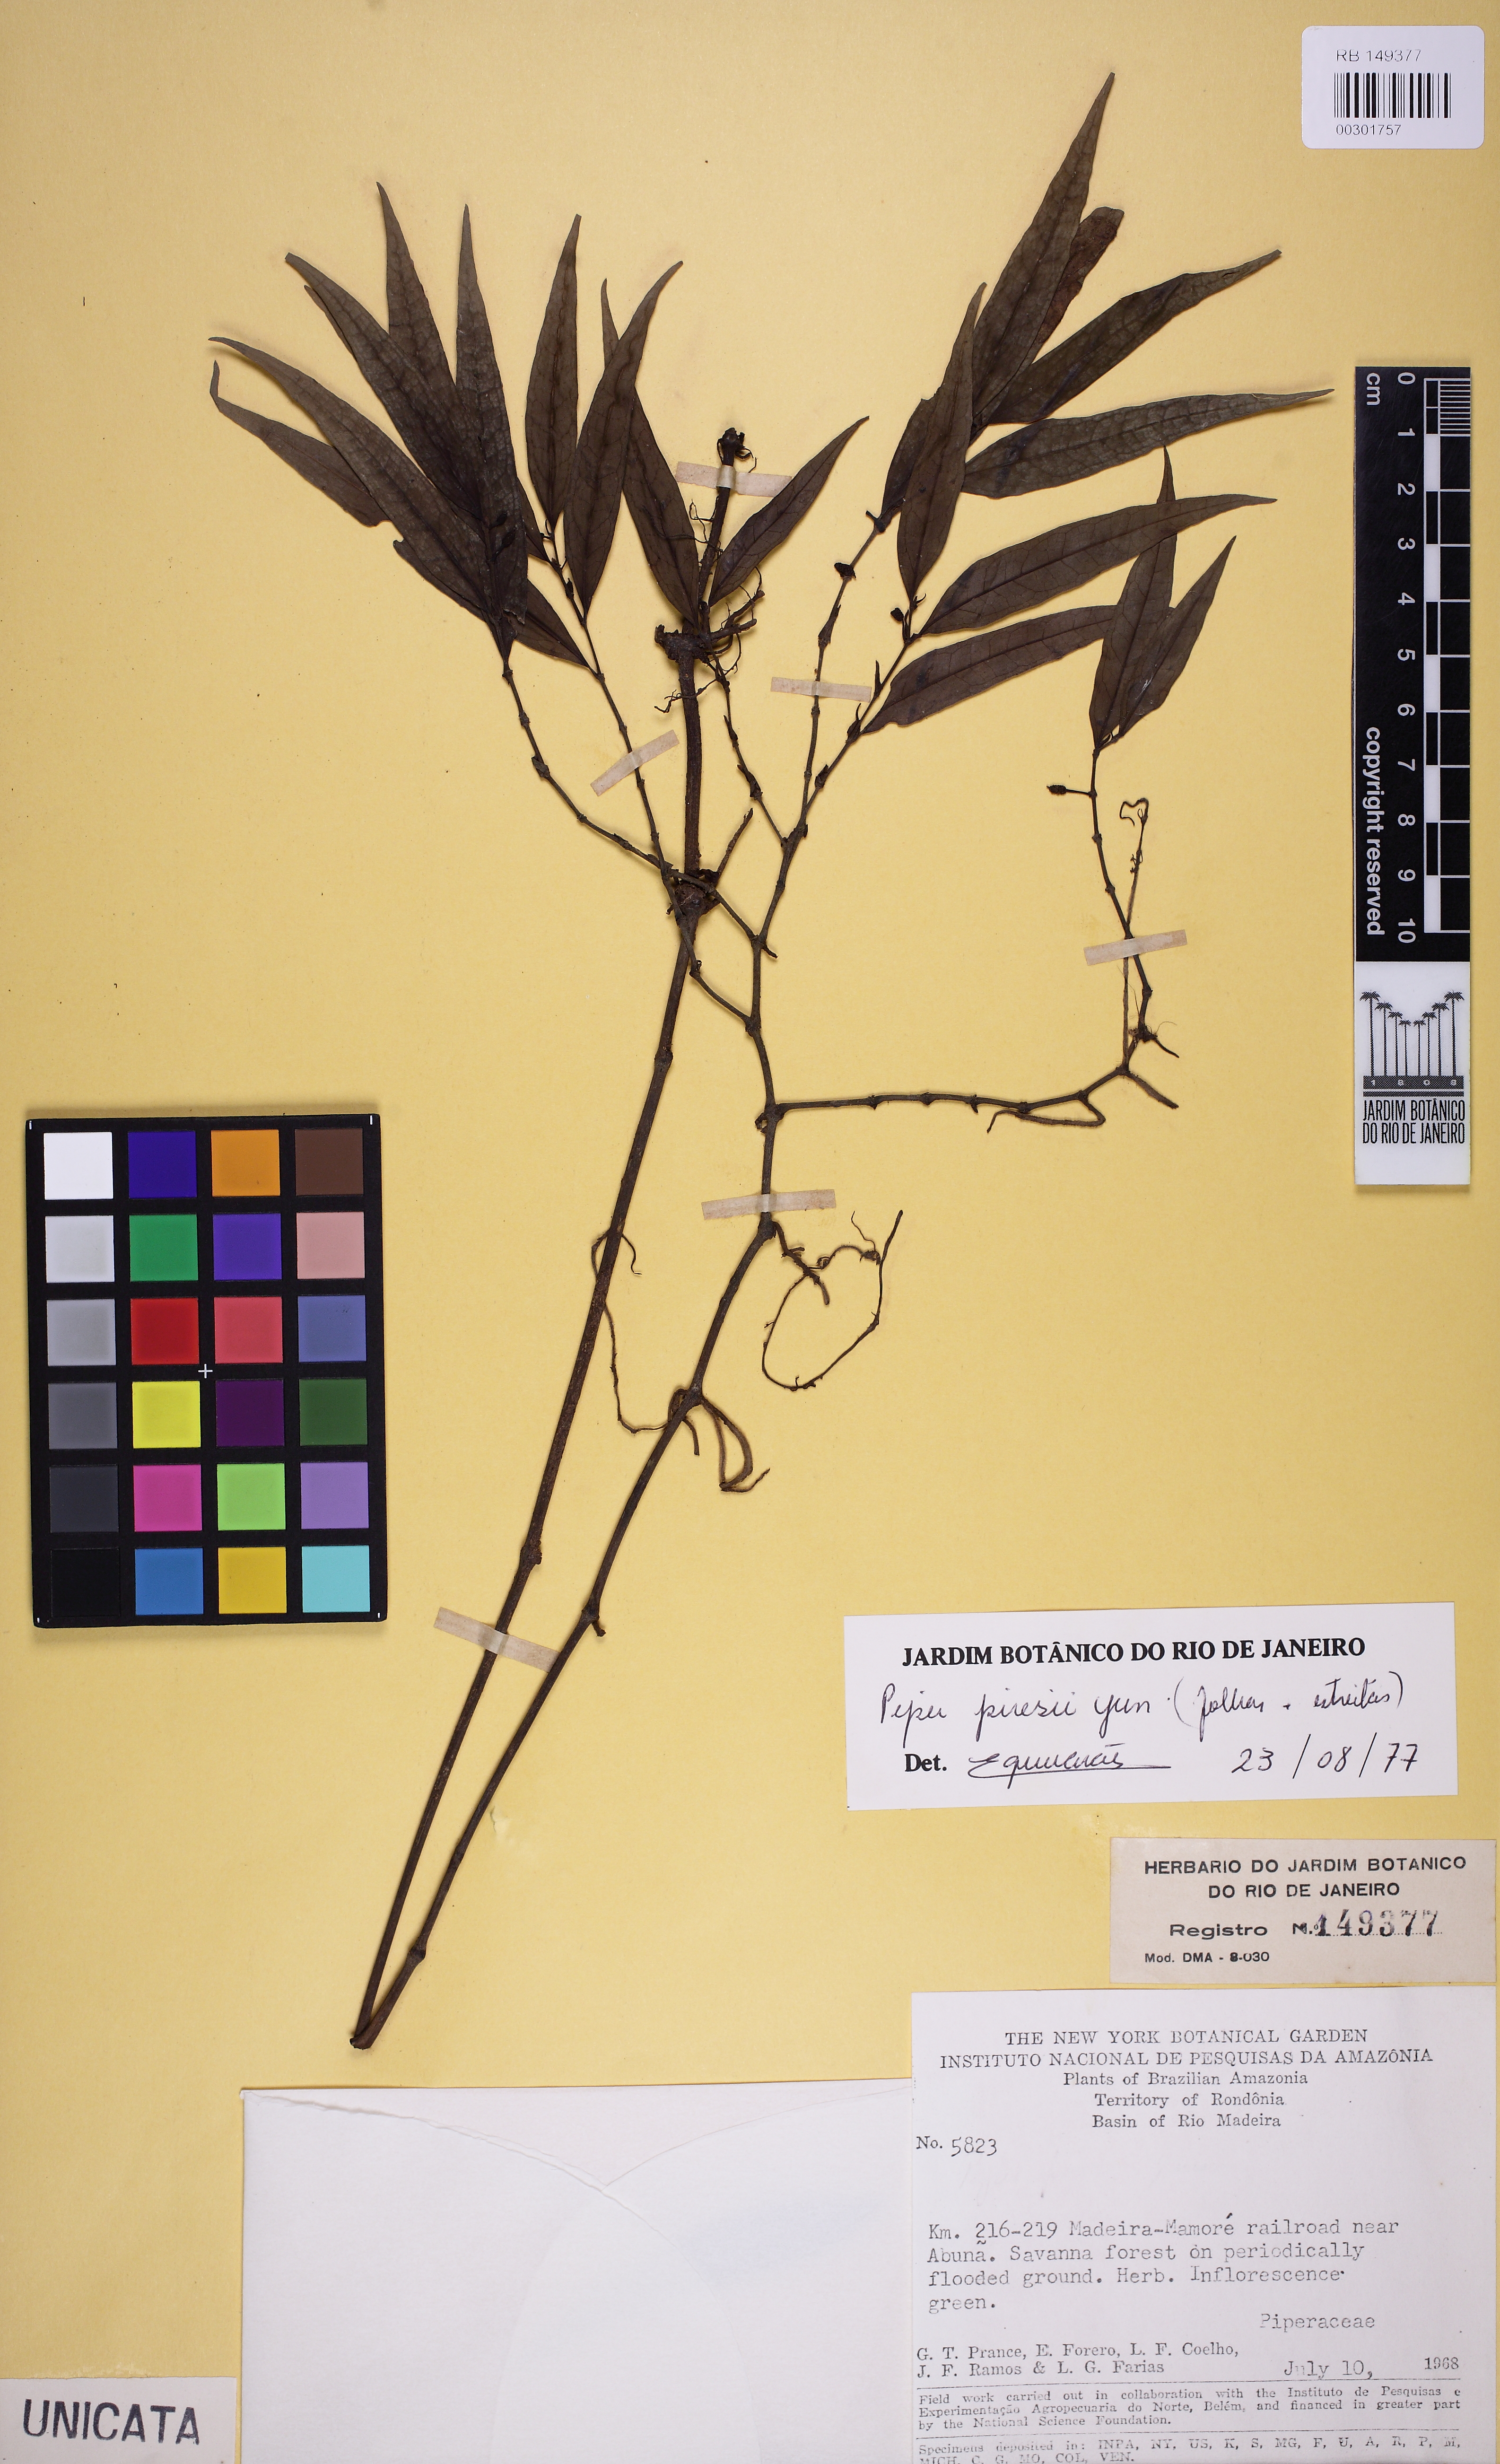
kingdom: Plantae
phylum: Tracheophyta
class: Magnoliopsida
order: Piperales
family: Piperaceae
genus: Piper
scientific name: Piper piresii
